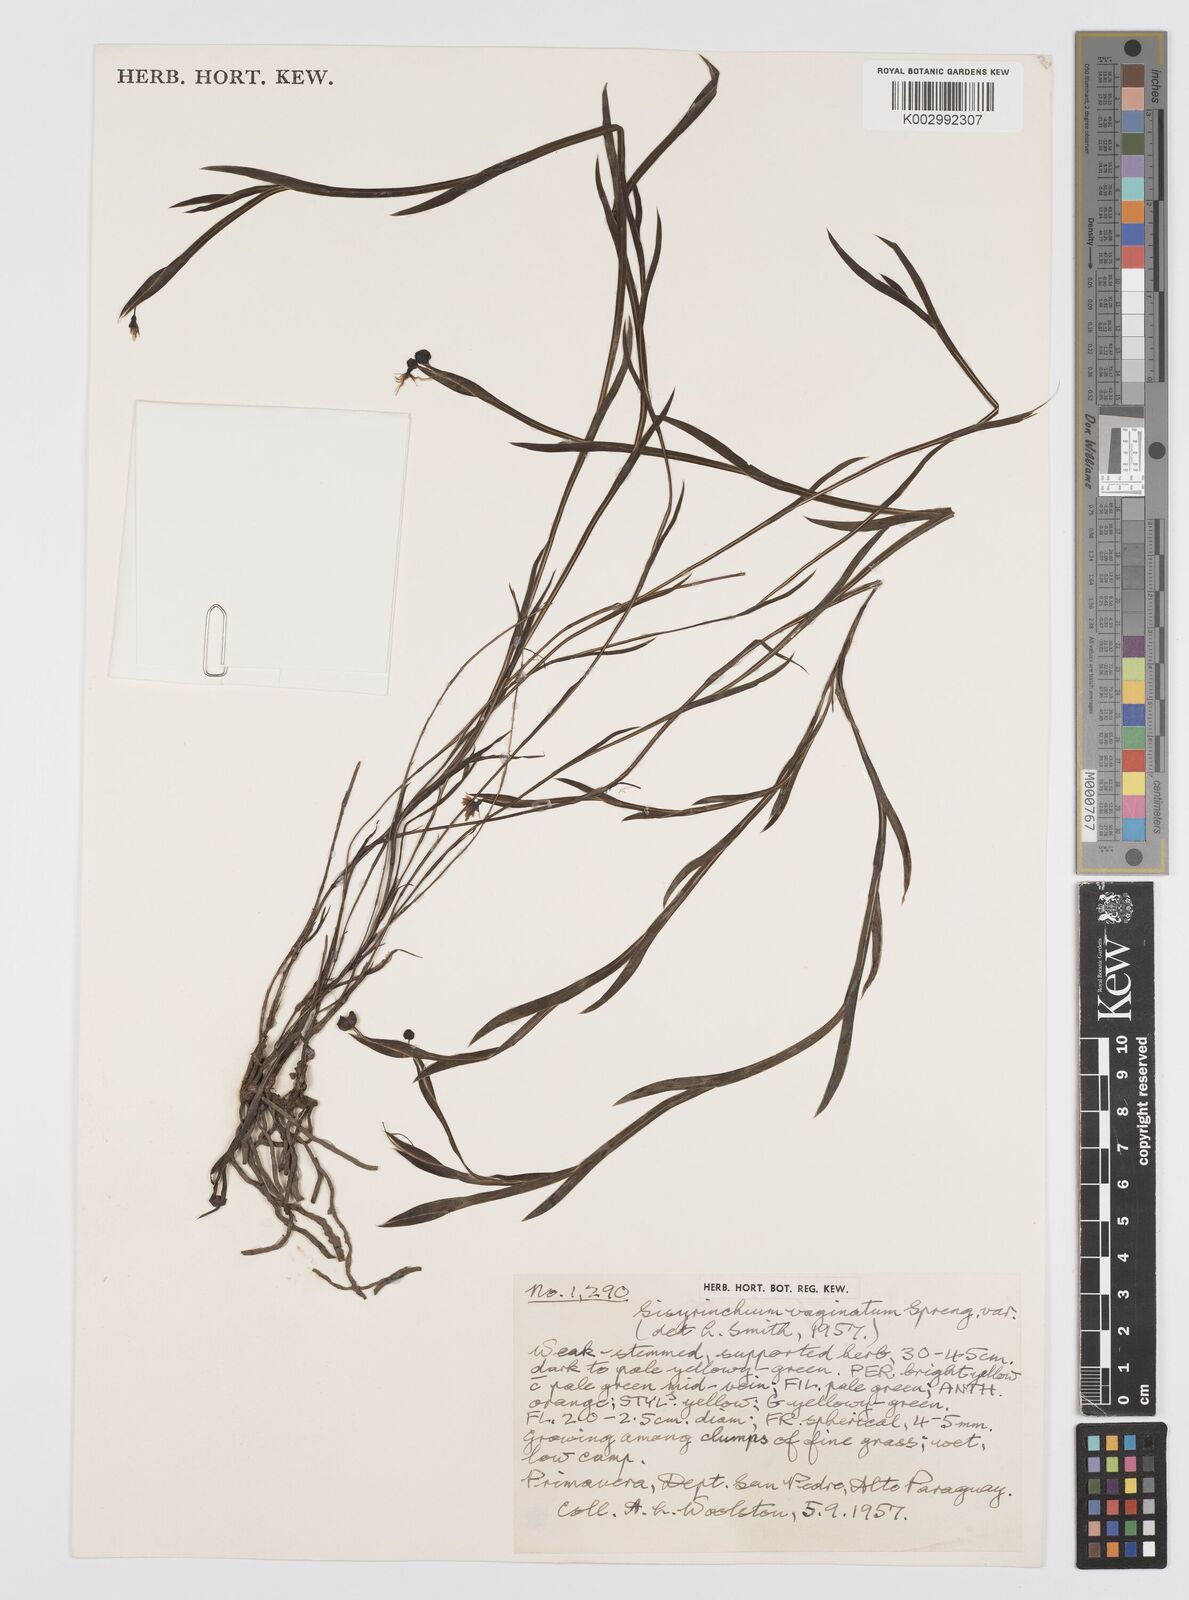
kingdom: Plantae
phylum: Tracheophyta
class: Liliopsida
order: Asparagales
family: Iridaceae
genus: Sisyrinchium
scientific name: Sisyrinchium vaginatum
